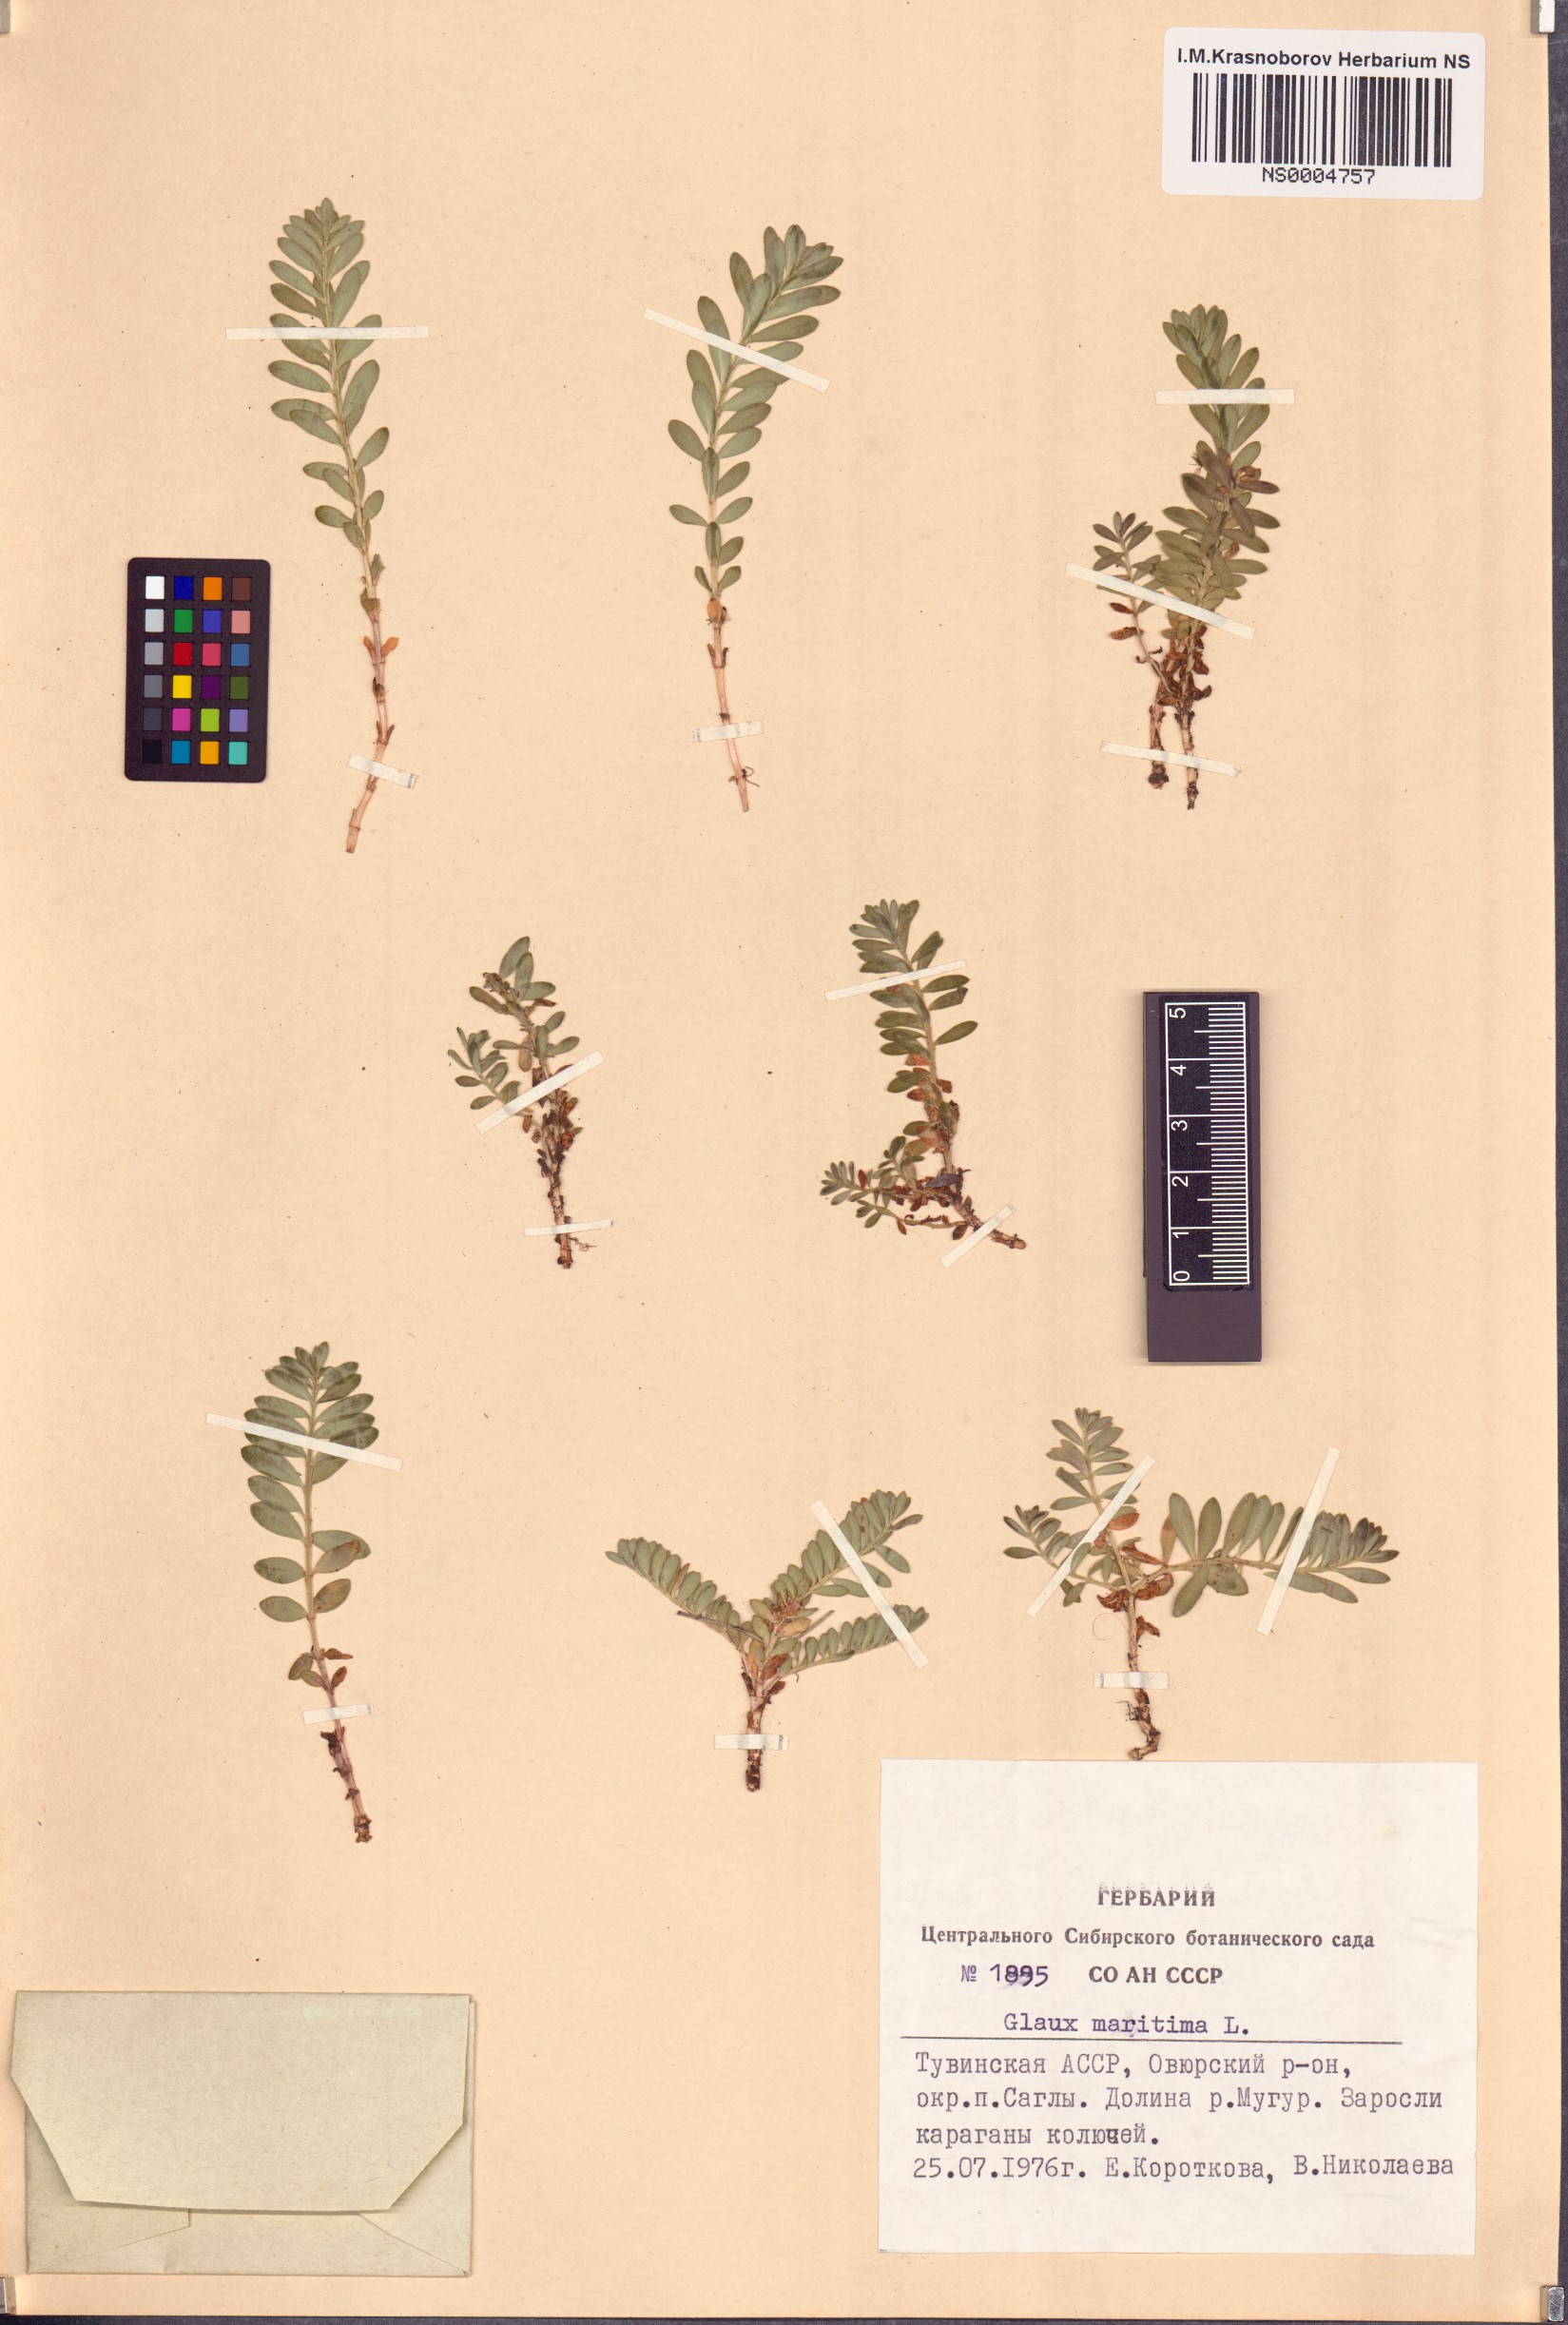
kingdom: Plantae
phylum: Tracheophyta
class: Magnoliopsida
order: Ericales
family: Primulaceae
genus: Lysimachia
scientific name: Lysimachia maritima
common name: Sea milkwort
